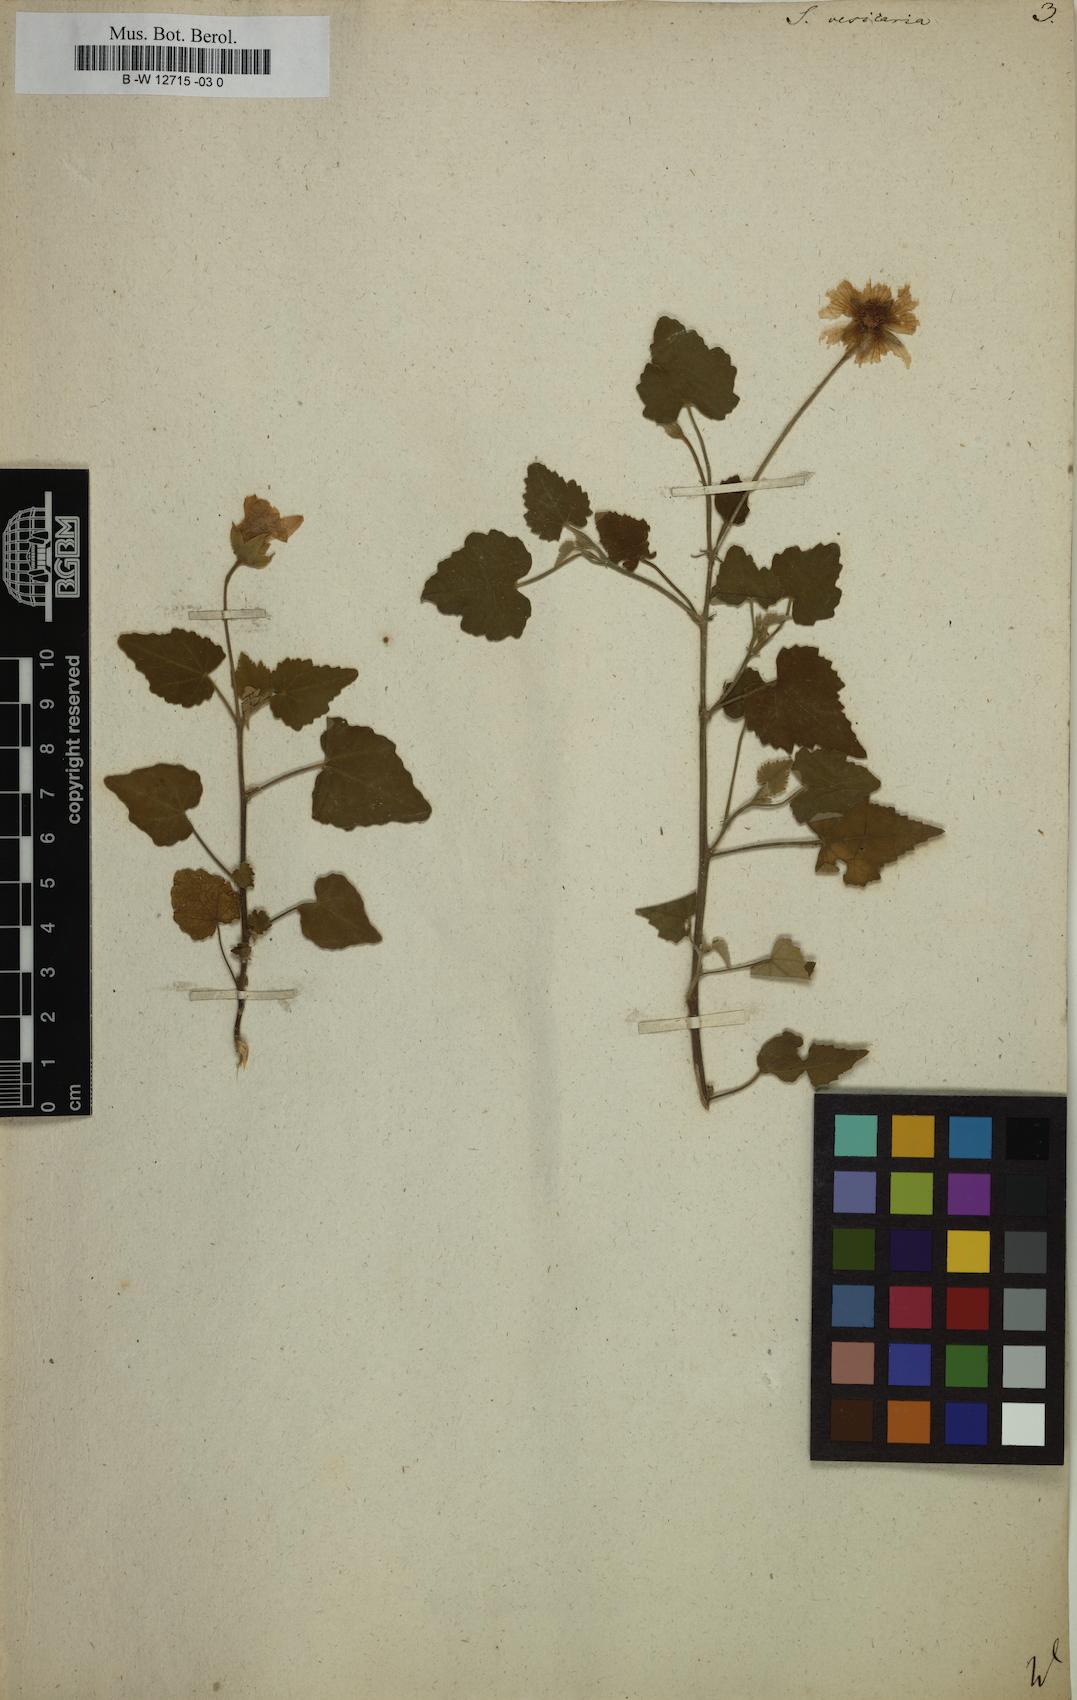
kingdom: Plantae
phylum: Tracheophyta
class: Magnoliopsida
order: Malvales
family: Malvaceae
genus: Abutilon
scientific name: Abutilon indicum
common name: Indian abutilon
